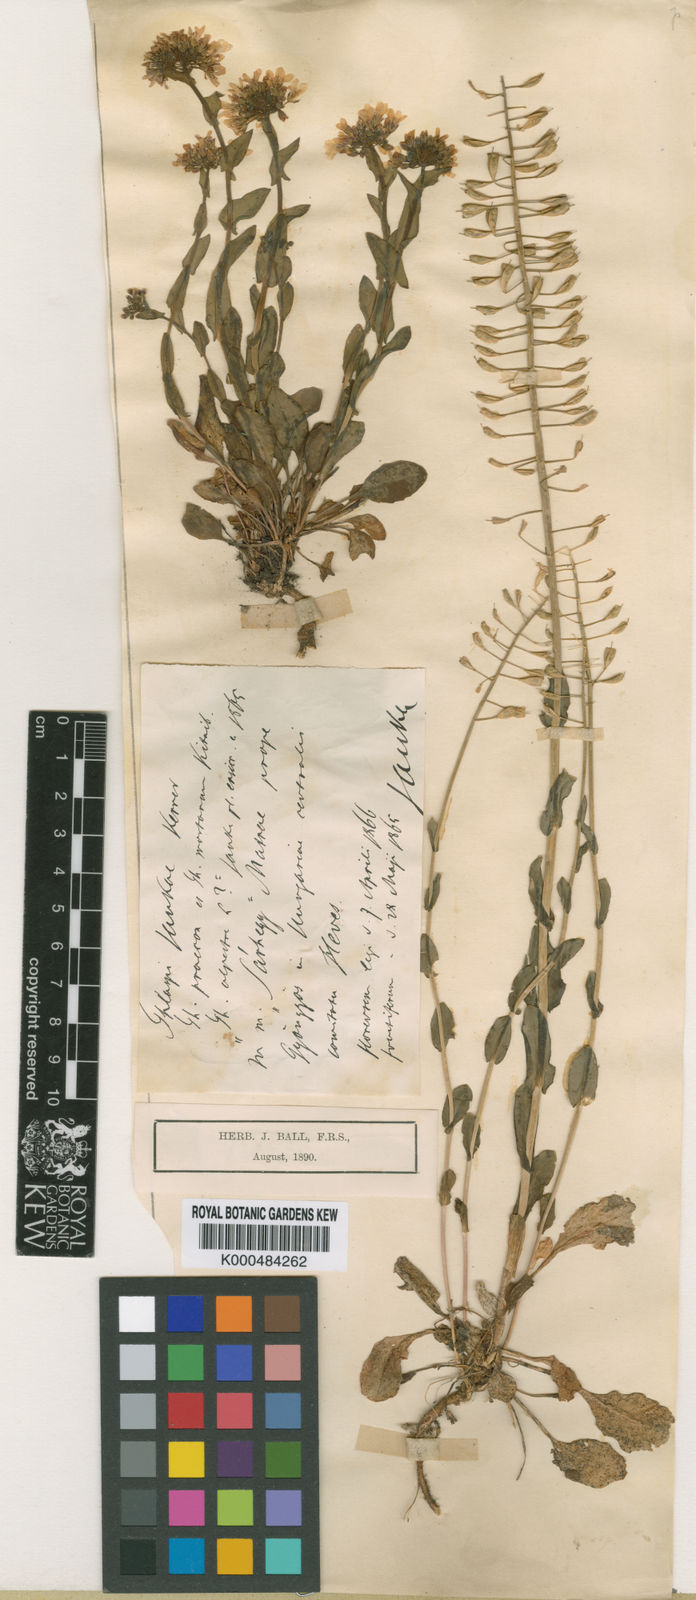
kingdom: Plantae
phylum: Tracheophyta
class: Magnoliopsida
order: Brassicales
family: Brassicaceae
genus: Noccaea
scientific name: Noccaea jankae
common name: Slovak penny-cress
